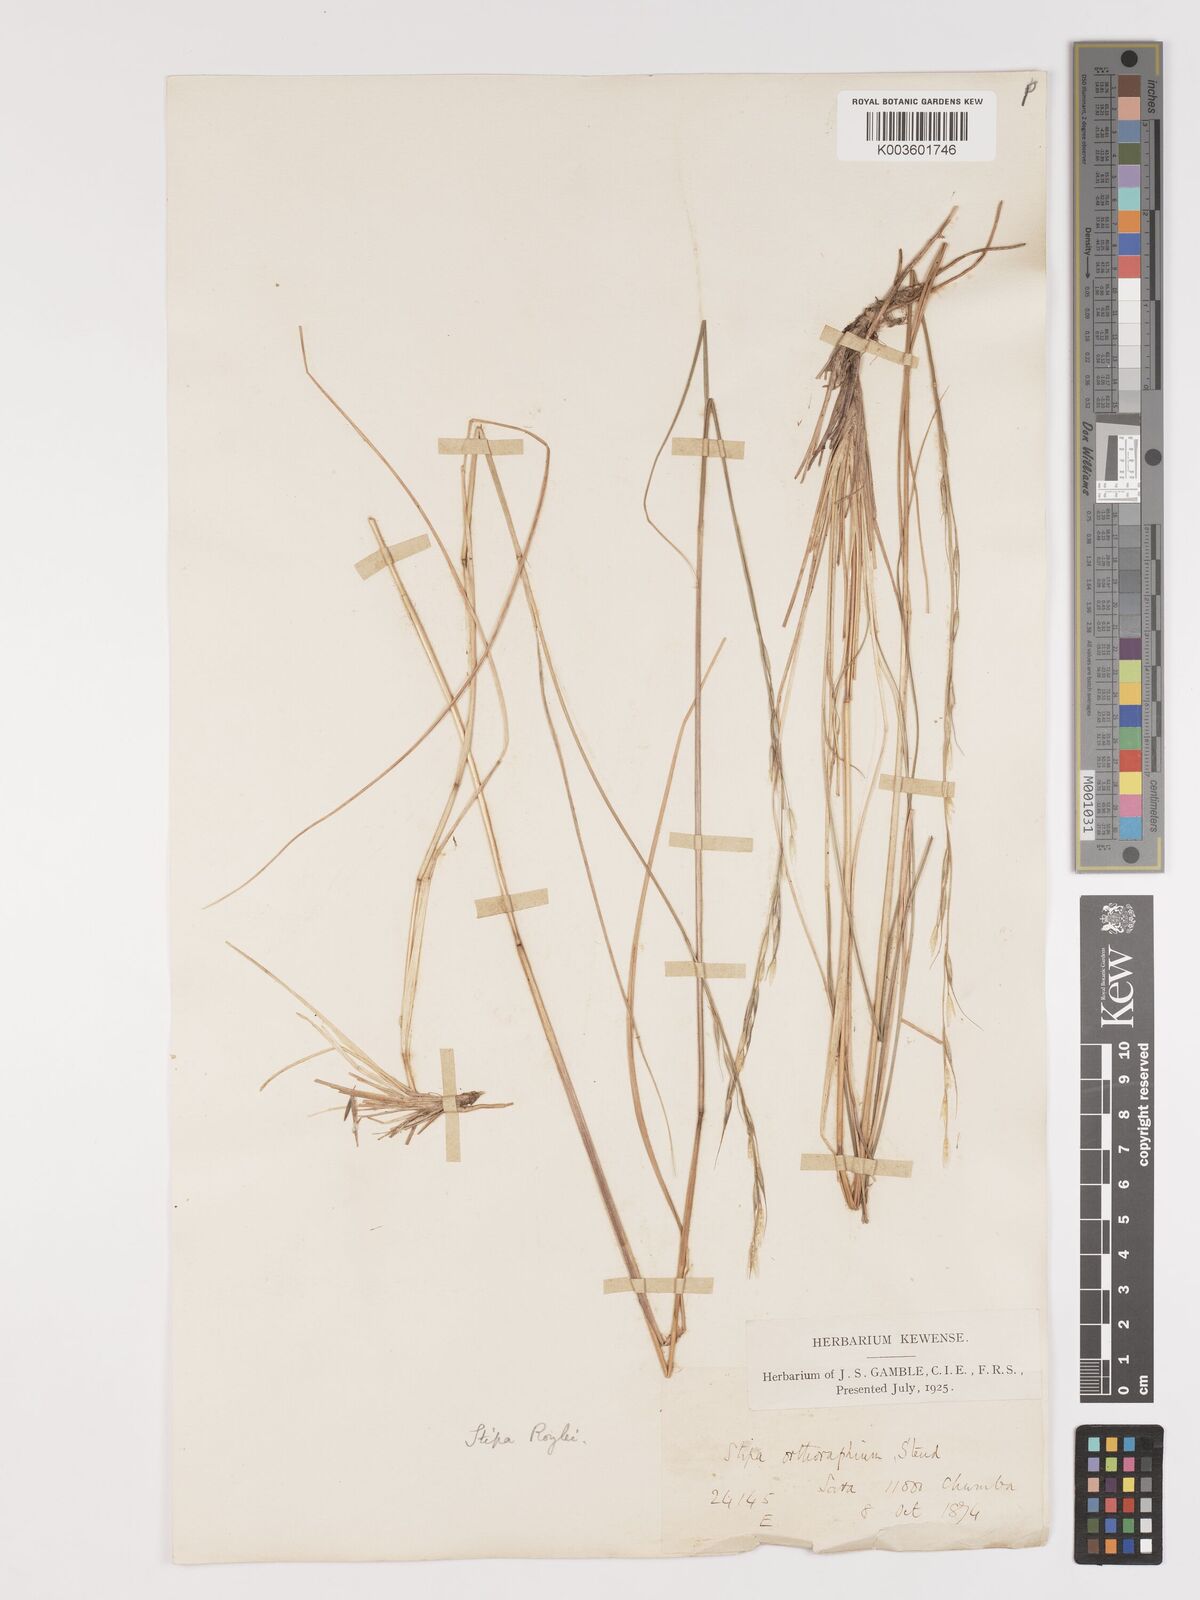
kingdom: Plantae
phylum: Tracheophyta
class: Liliopsida
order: Poales
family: Poaceae
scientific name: Poaceae
